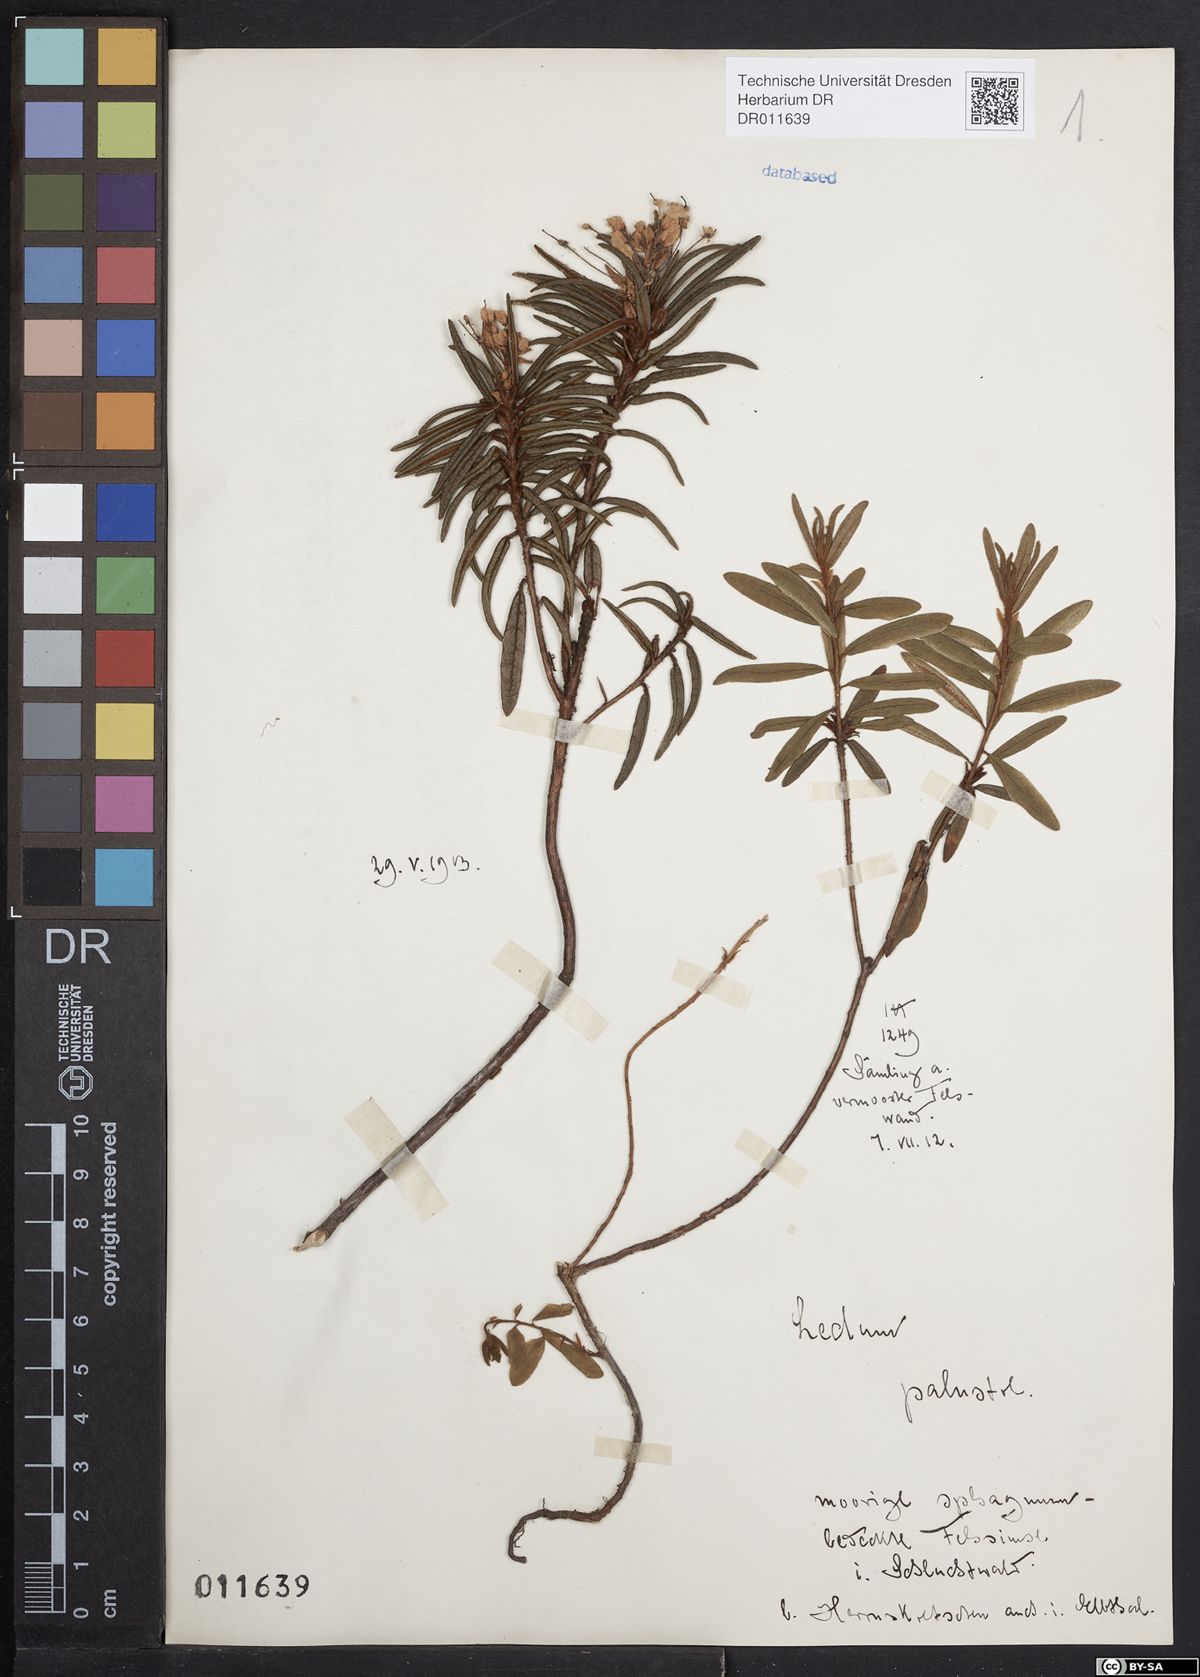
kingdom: Plantae
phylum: Tracheophyta
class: Magnoliopsida
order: Ericales
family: Ericaceae
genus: Rhododendron
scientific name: Rhododendron tomentosum
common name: Marsh labrador tea
